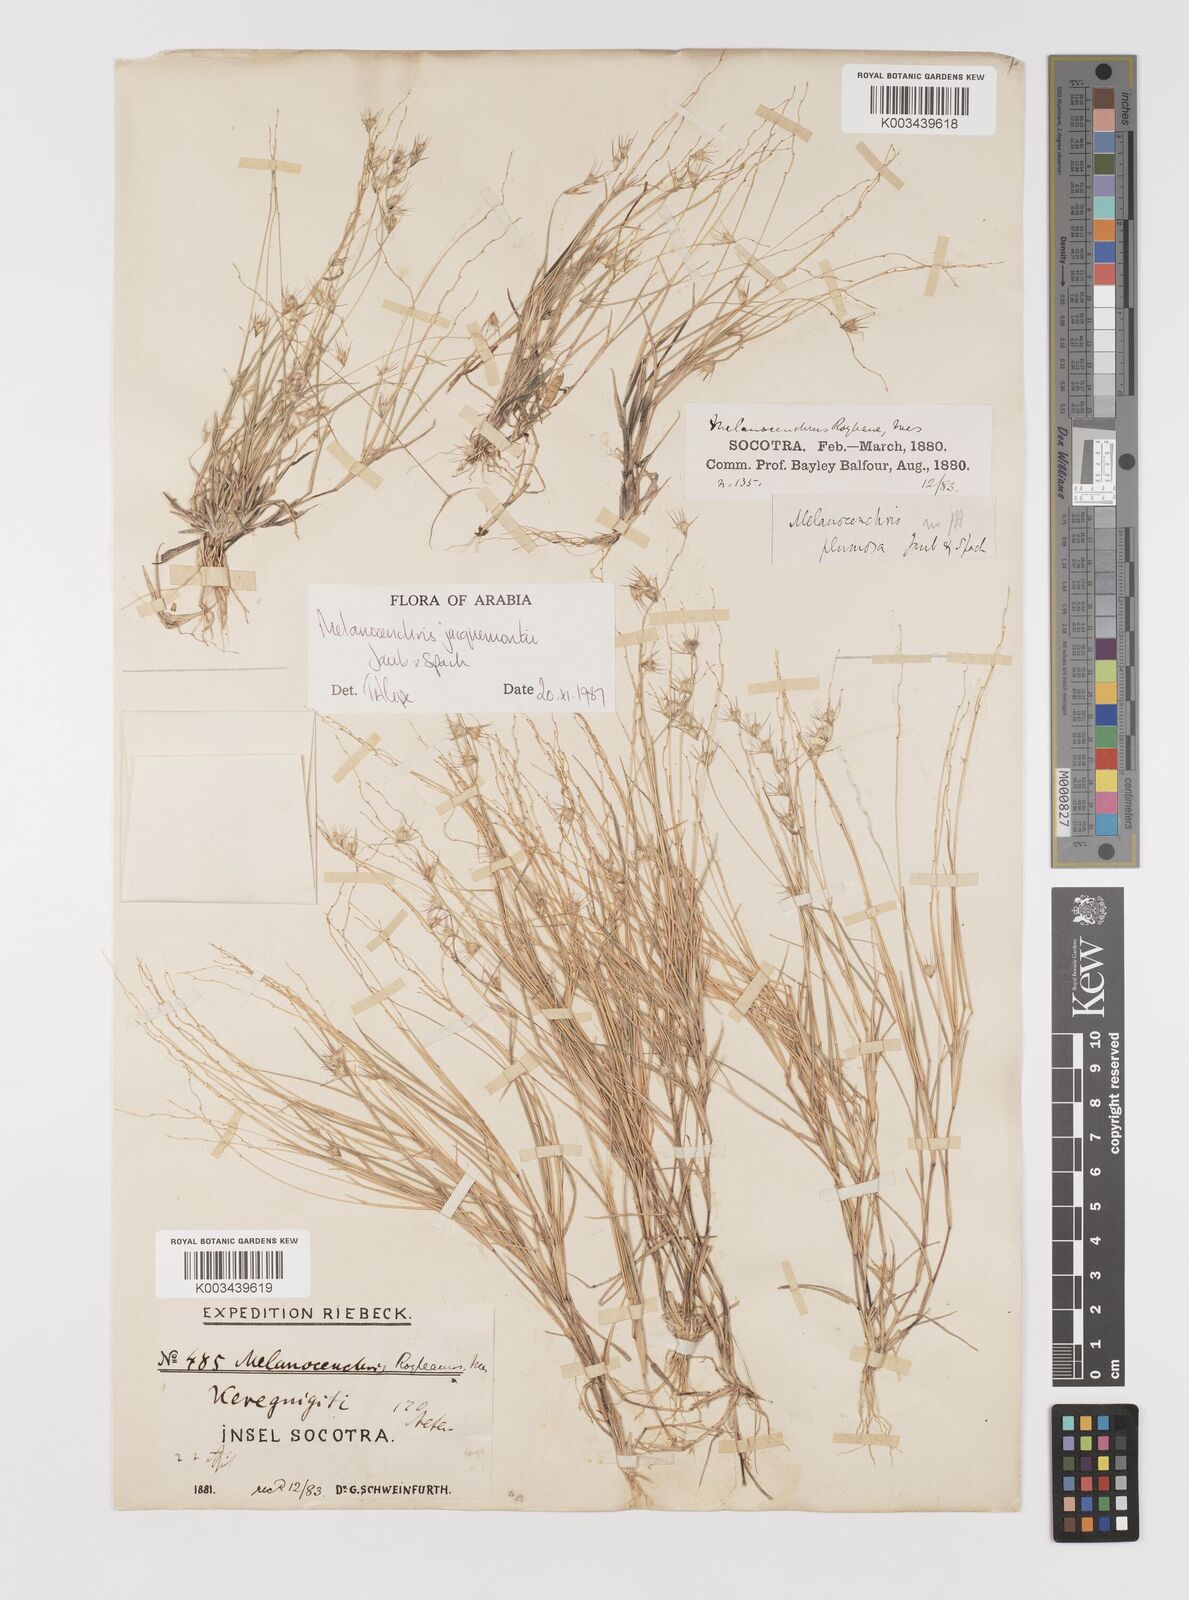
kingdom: Plantae
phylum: Tracheophyta
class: Liliopsida
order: Poales
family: Poaceae
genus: Melanocenchris
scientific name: Melanocenchris jacquemontii
